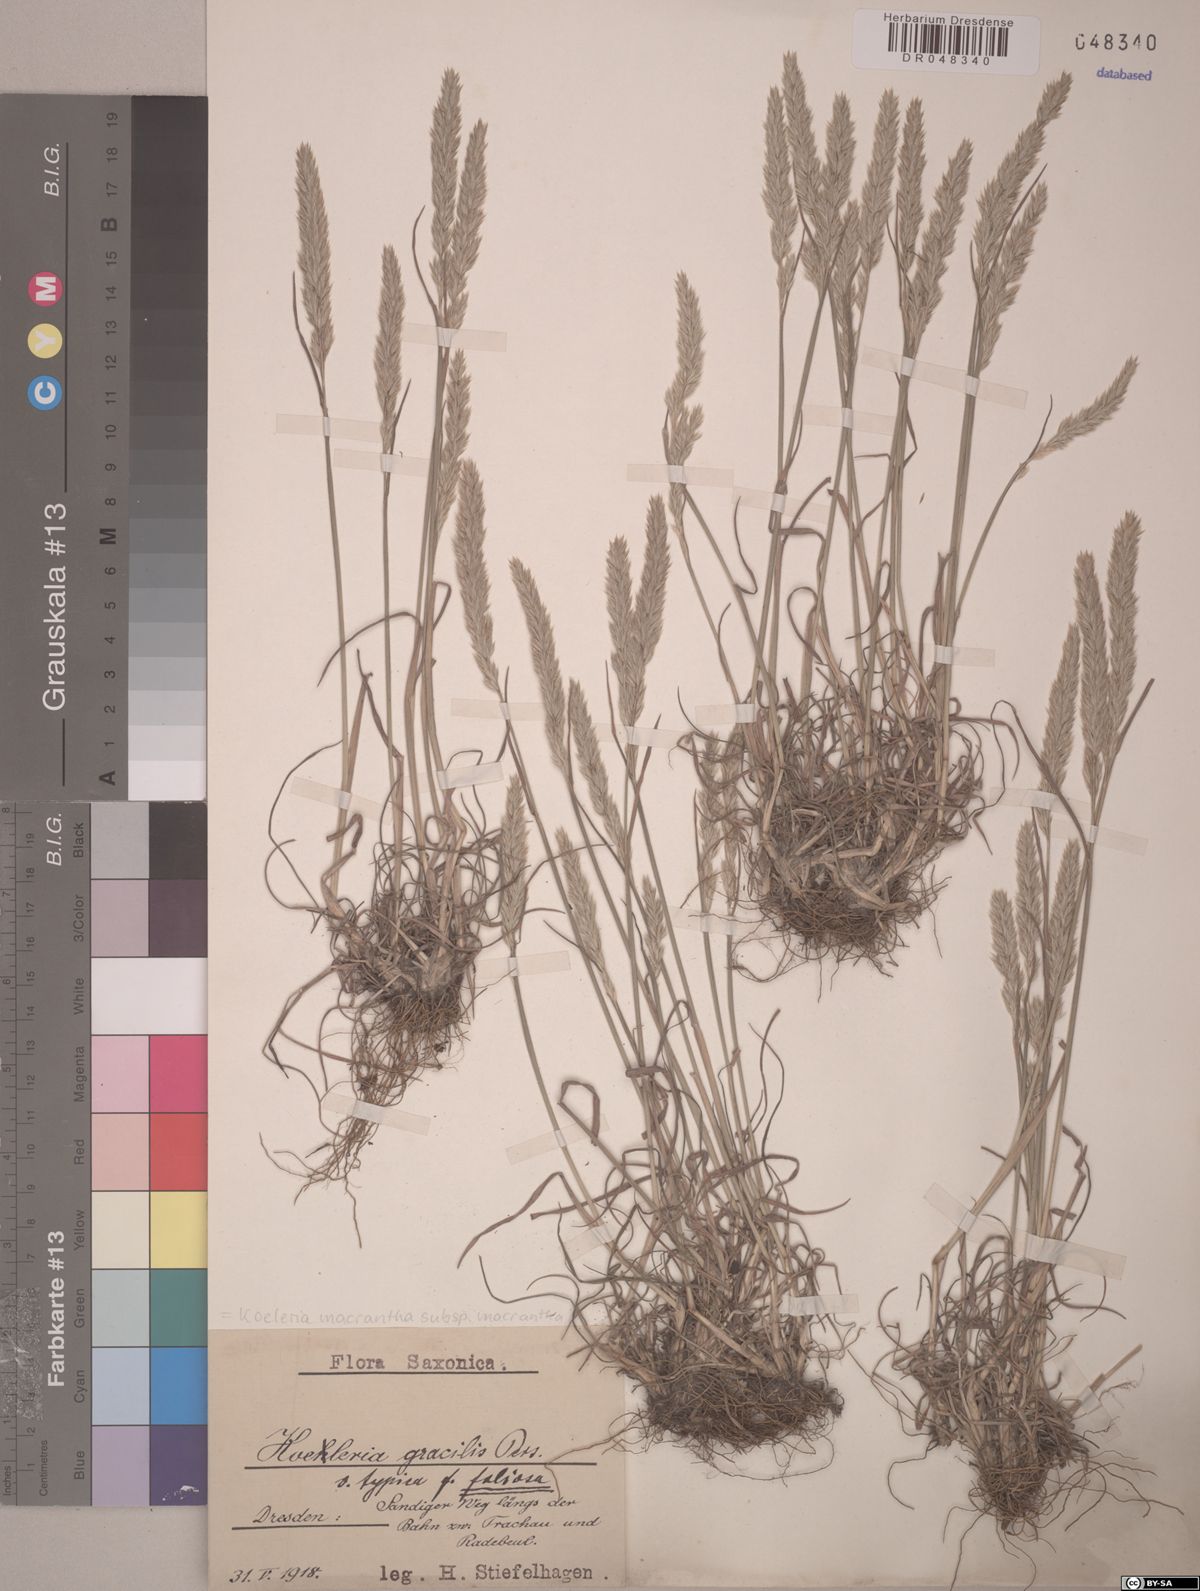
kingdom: Plantae
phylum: Tracheophyta
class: Liliopsida
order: Poales
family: Poaceae
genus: Koeleria
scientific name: Koeleria macrantha
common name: Crested hair-grass
